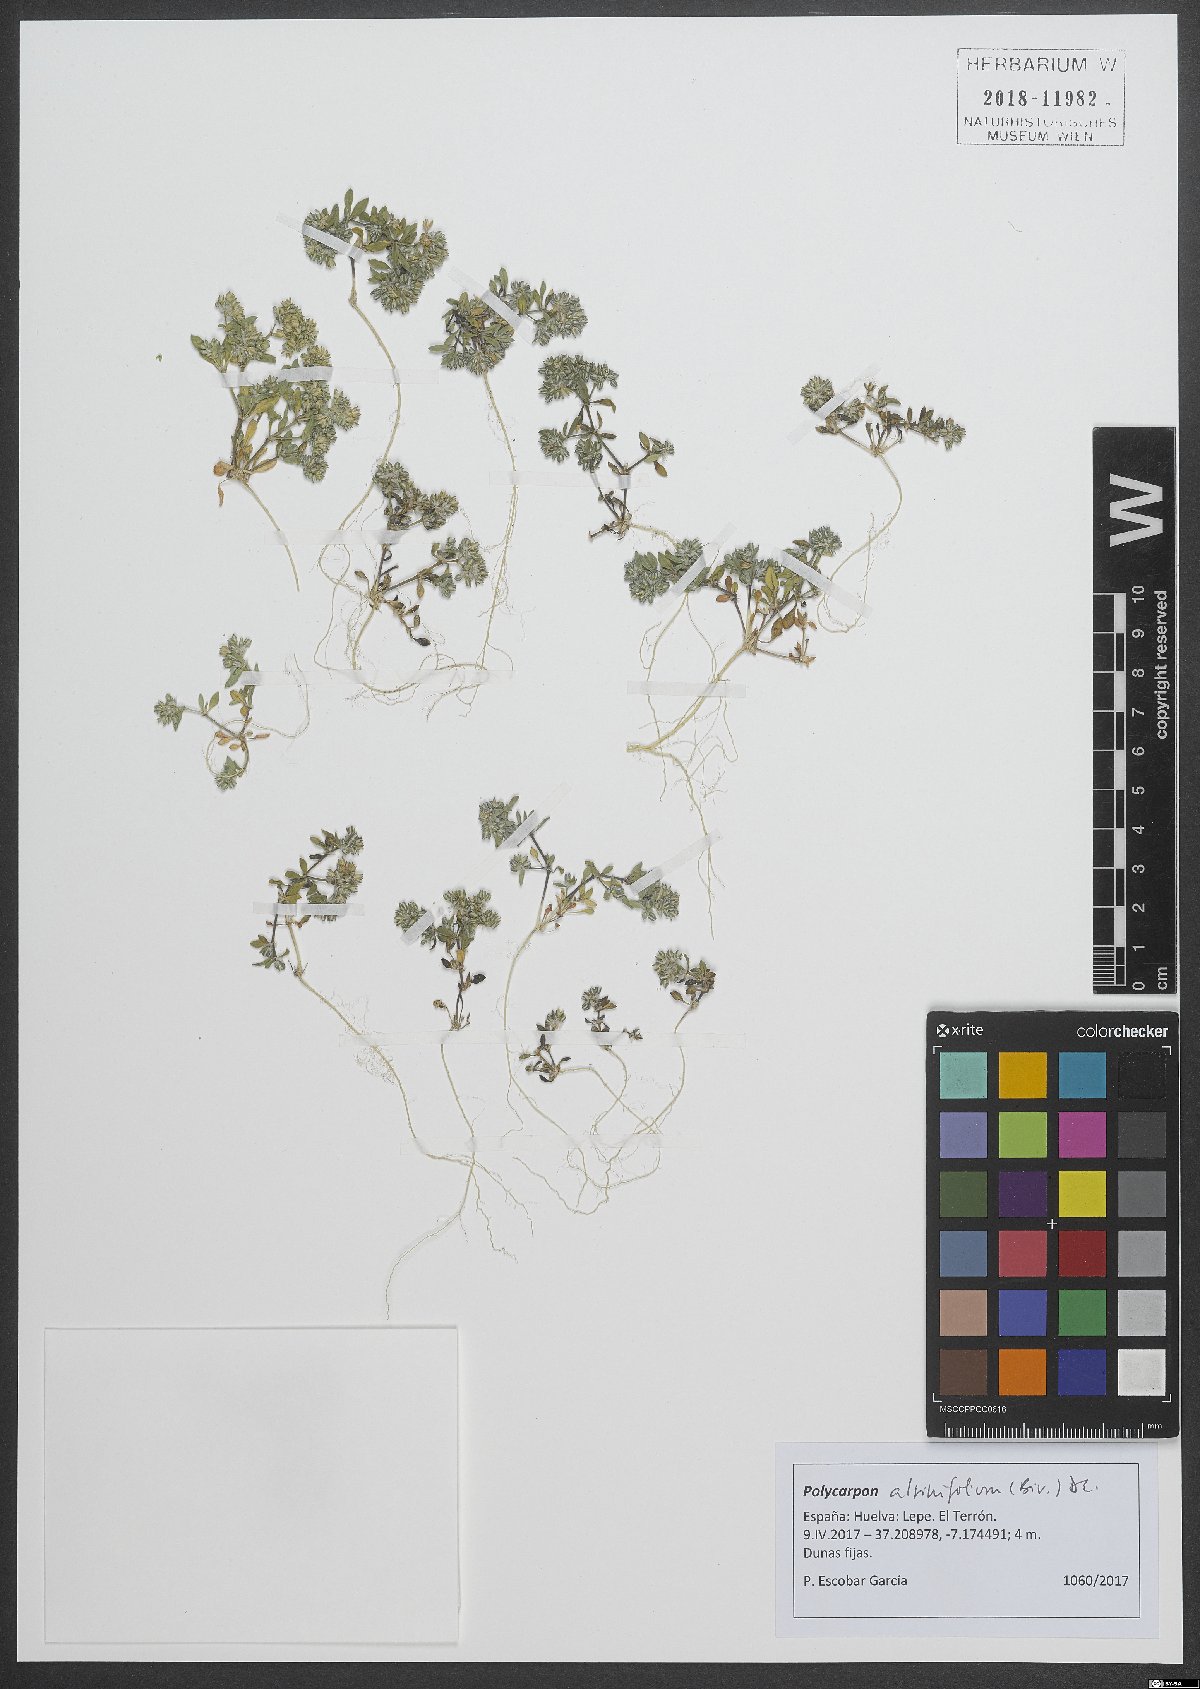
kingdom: Plantae
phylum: Tracheophyta
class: Magnoliopsida
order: Caryophyllales
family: Caryophyllaceae
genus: Polycarpon
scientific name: Polycarpon alsinifolium
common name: Fourleaf manyseed
